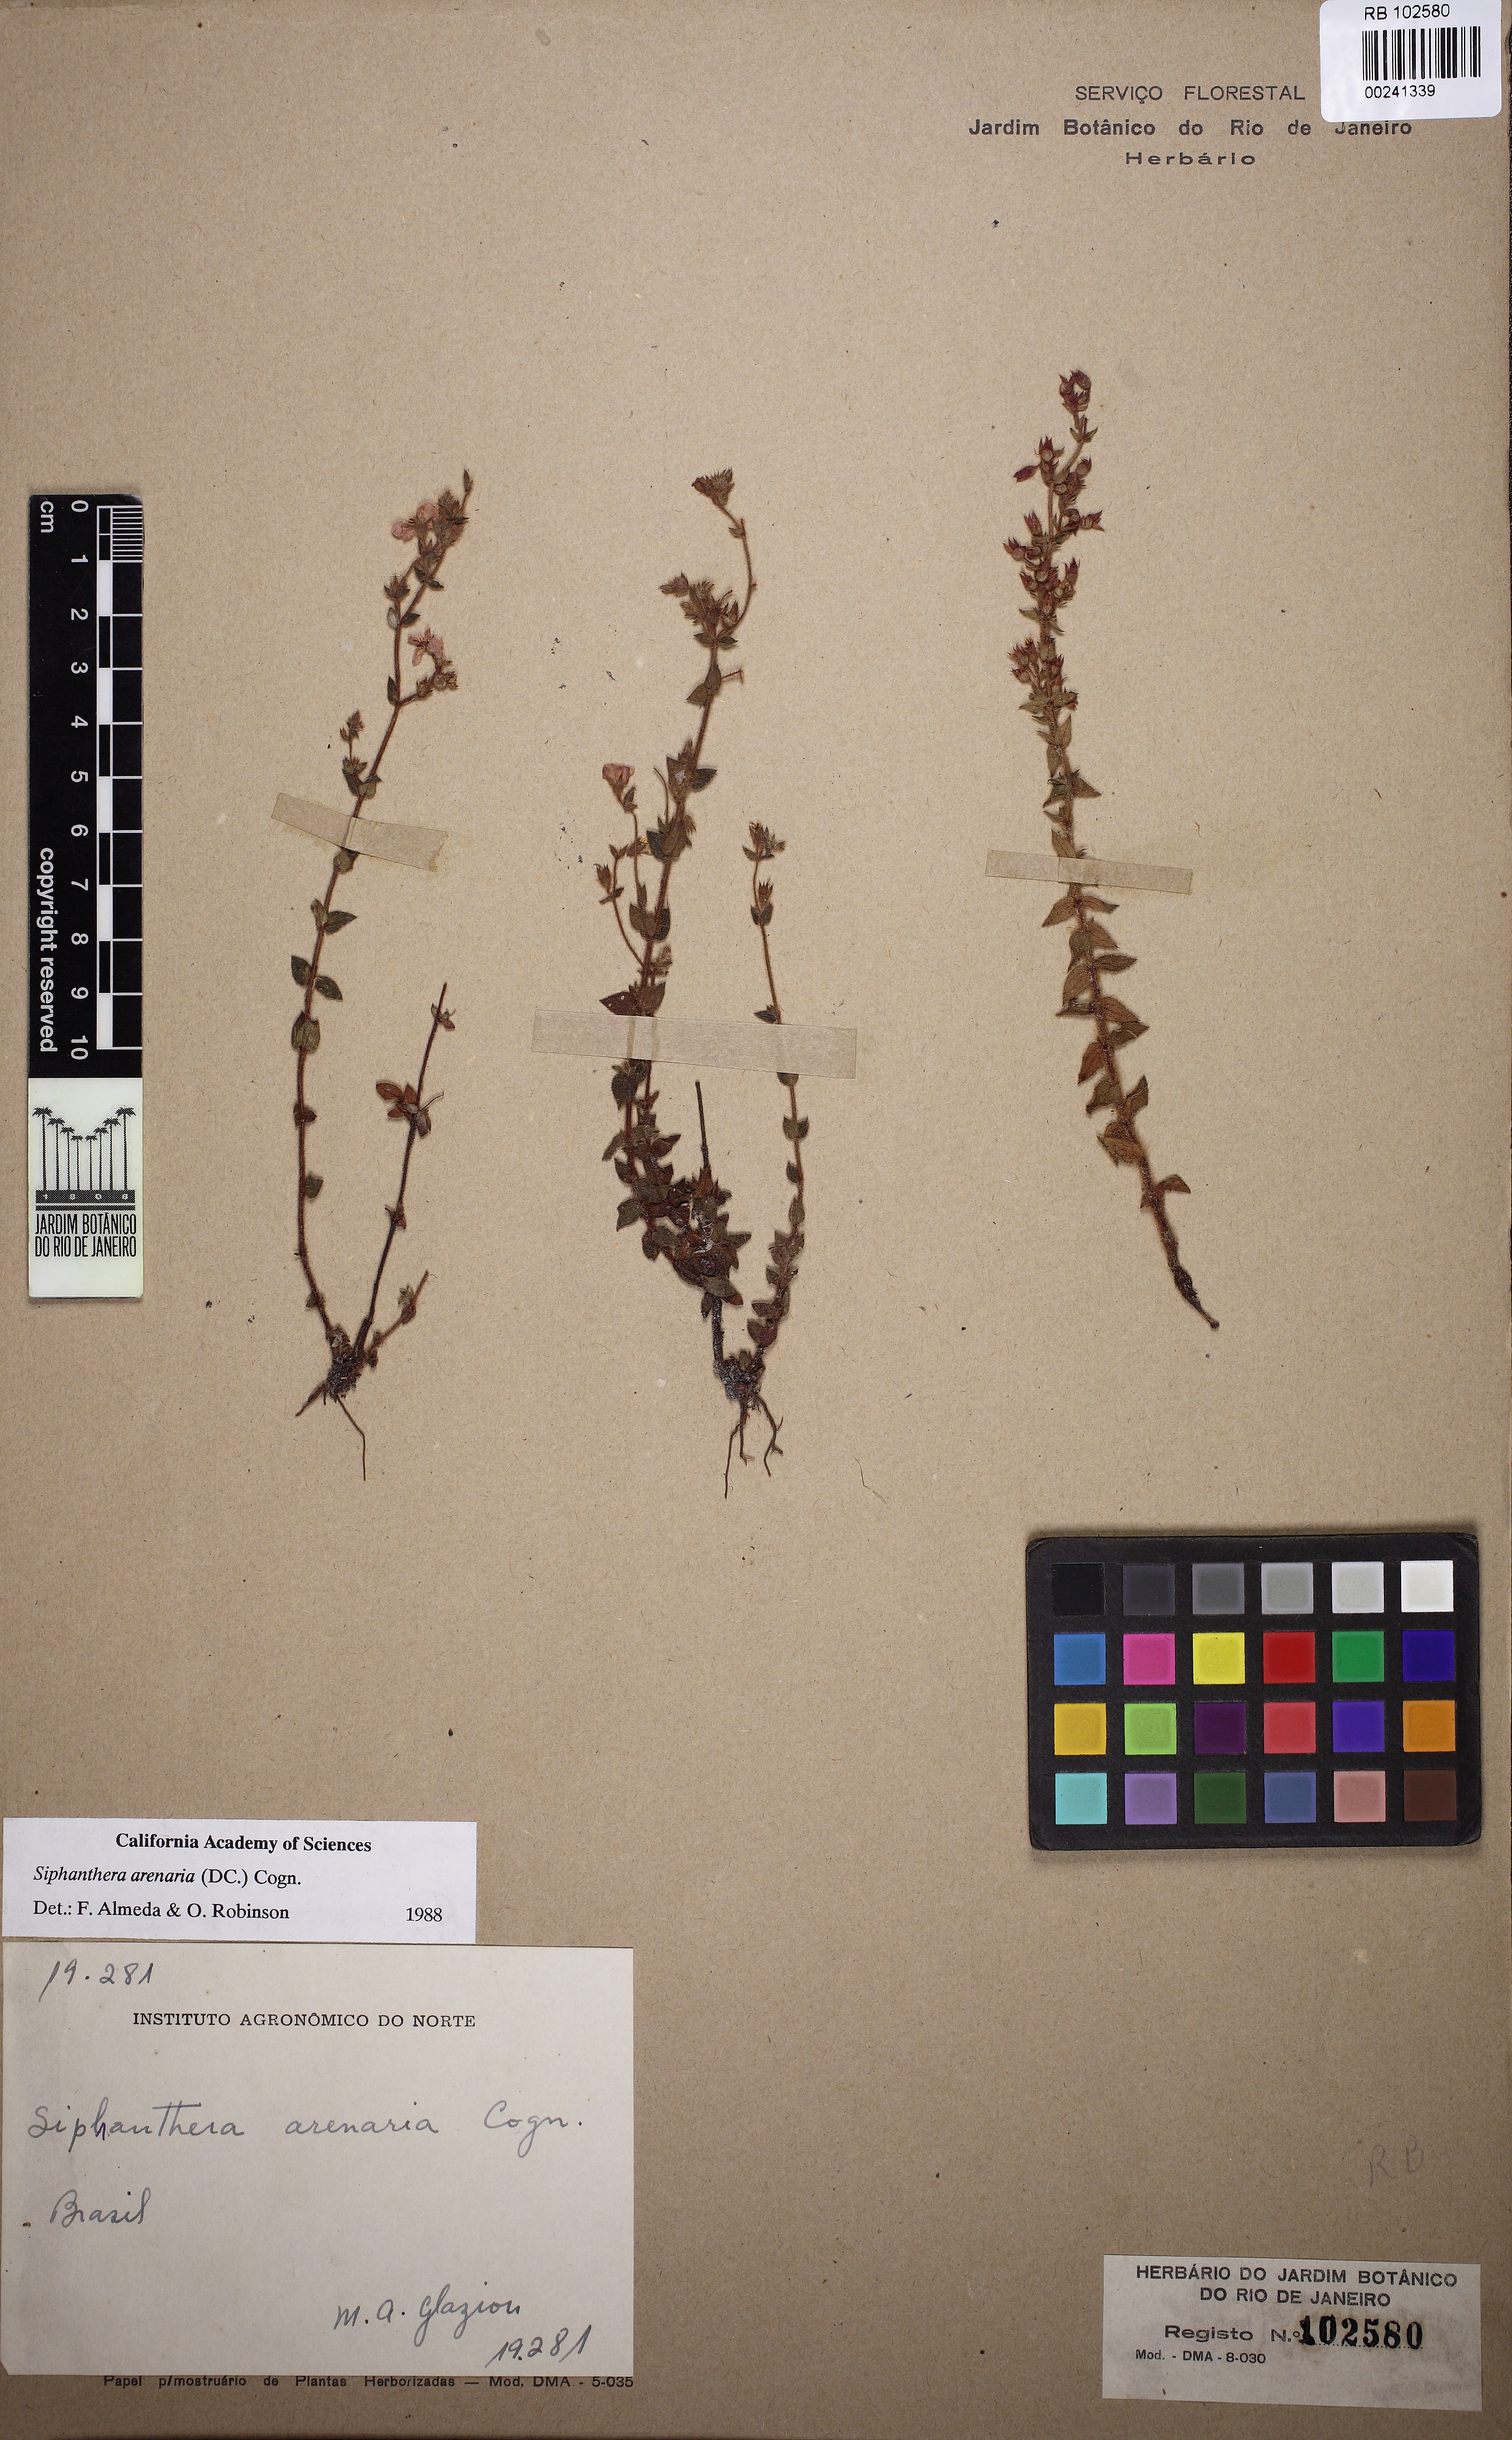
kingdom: Plantae
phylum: Tracheophyta
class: Magnoliopsida
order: Myrtales
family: Melastomataceae
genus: Siphanthera
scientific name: Siphanthera arenaria
